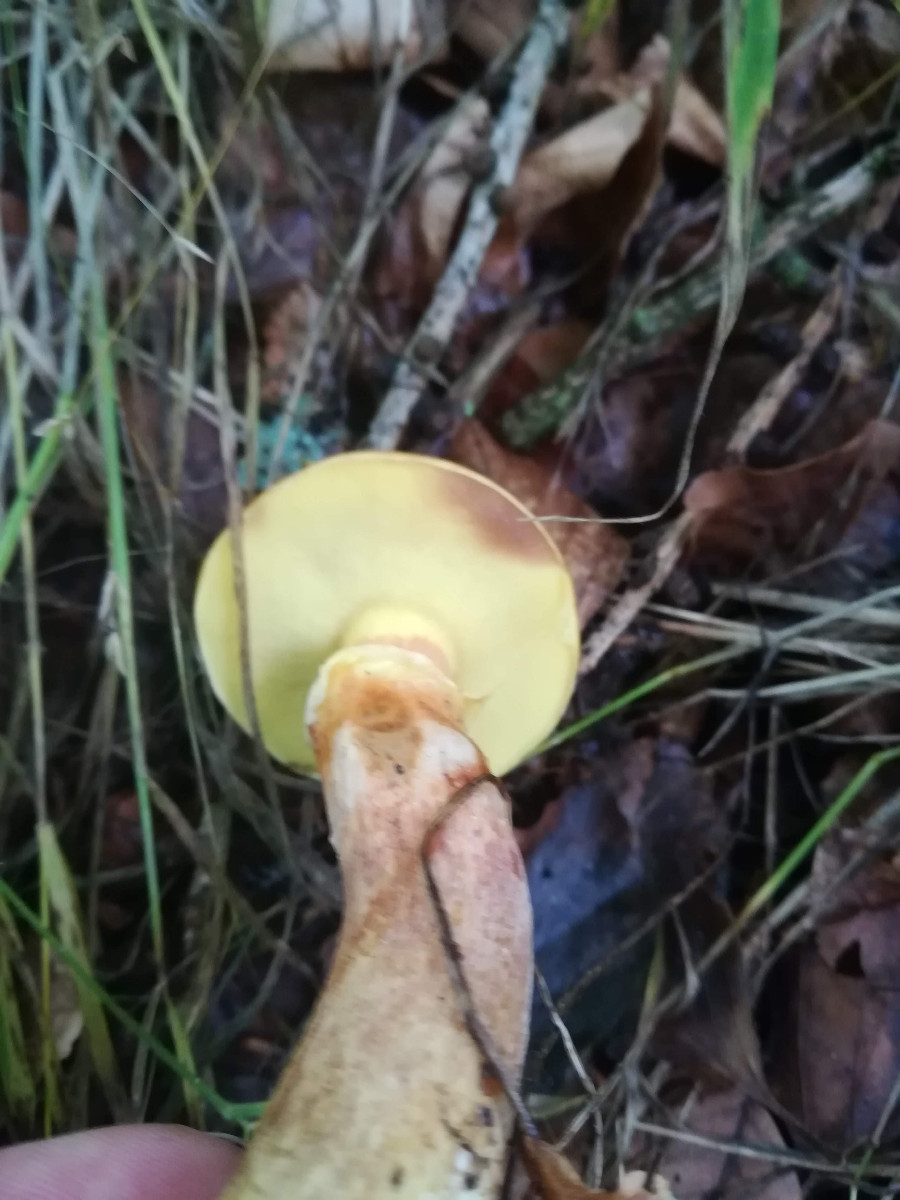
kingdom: Fungi
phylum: Basidiomycota
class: Agaricomycetes
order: Boletales
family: Suillaceae
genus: Suillus
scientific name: Suillus grevillei
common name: lærke-slimrørhat
